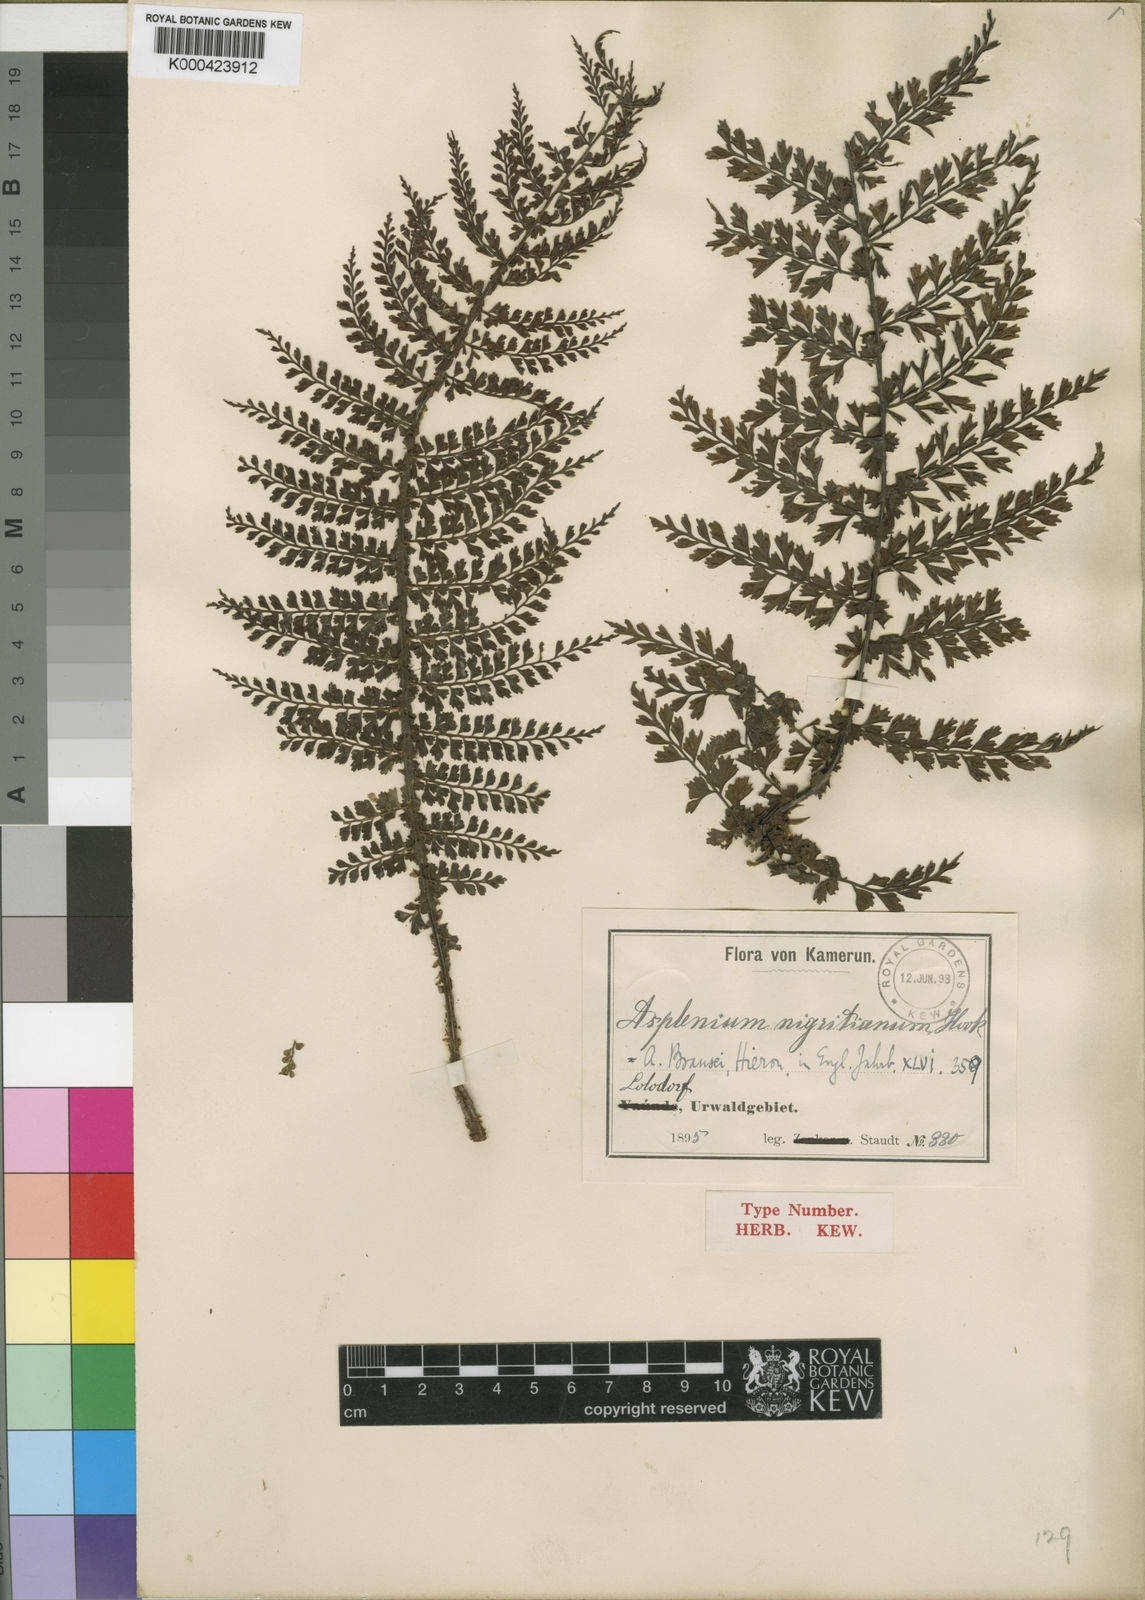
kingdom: Plantae
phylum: Tracheophyta
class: Polypodiopsida
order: Polypodiales
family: Aspleniaceae
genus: Asplenium
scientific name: Asplenium brausei
